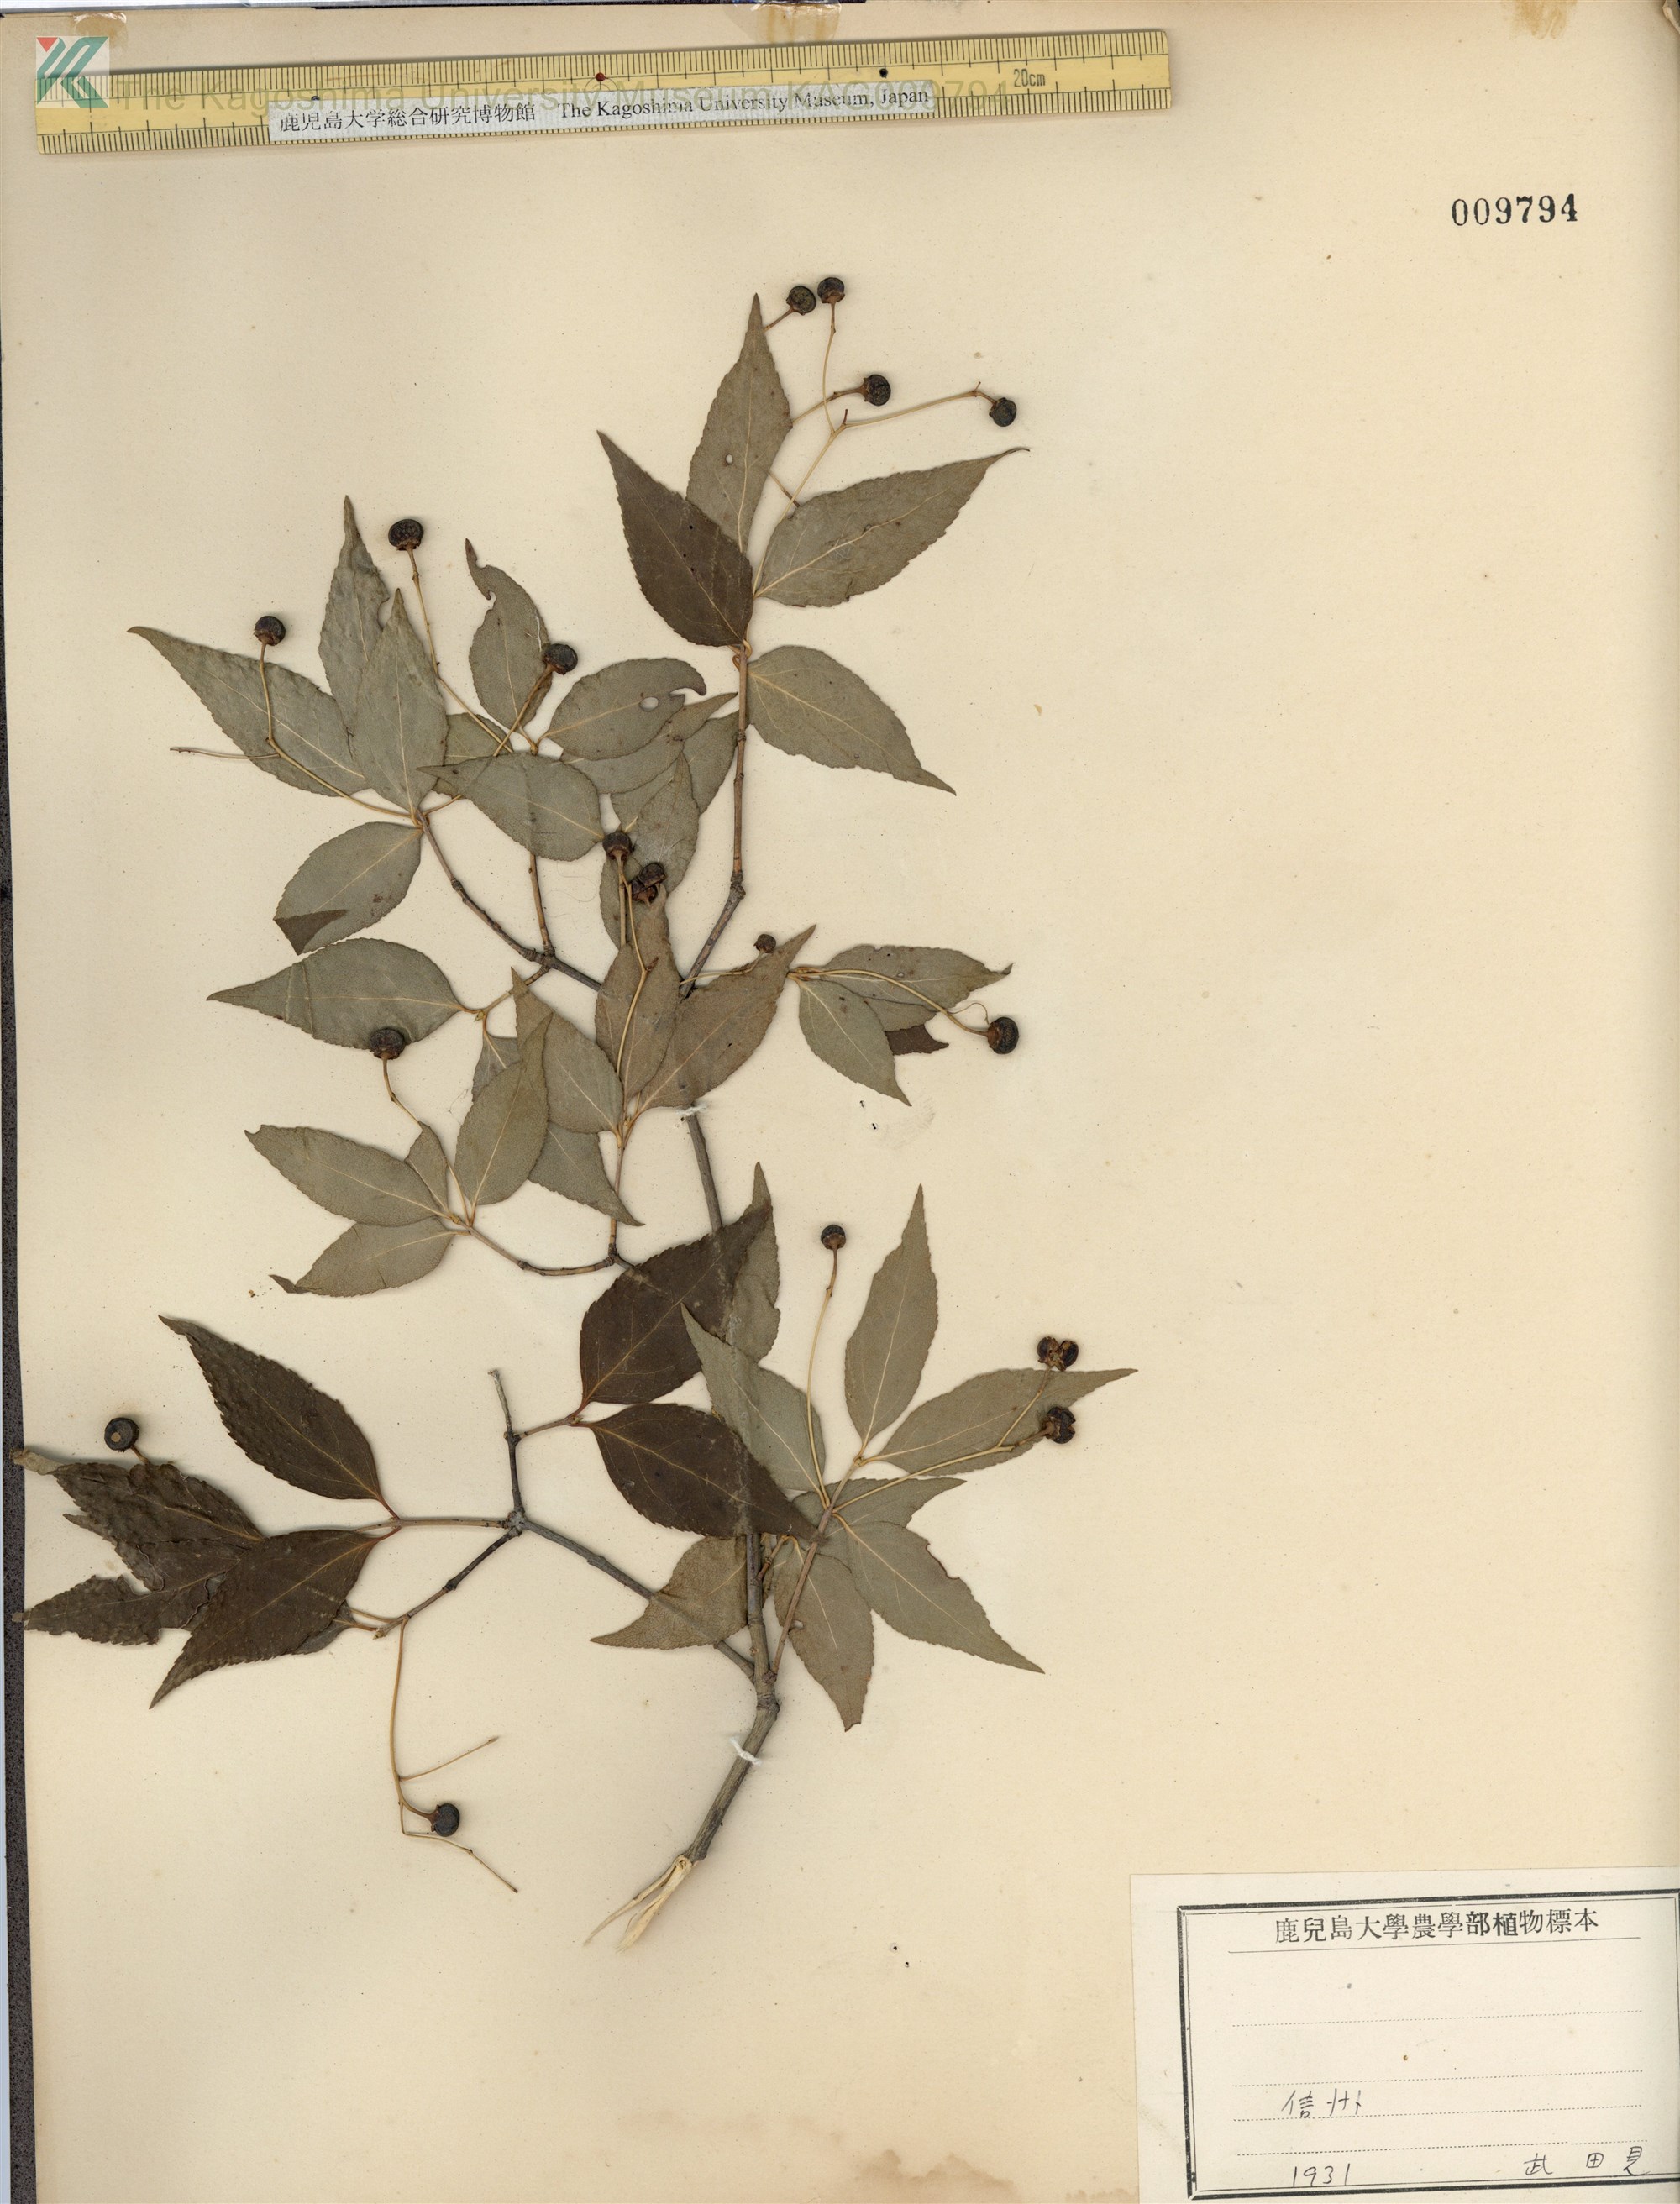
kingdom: Plantae
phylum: Tracheophyta
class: Magnoliopsida
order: Celastrales
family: Celastraceae
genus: Euonymus
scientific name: Euonymus oxyphyllus
